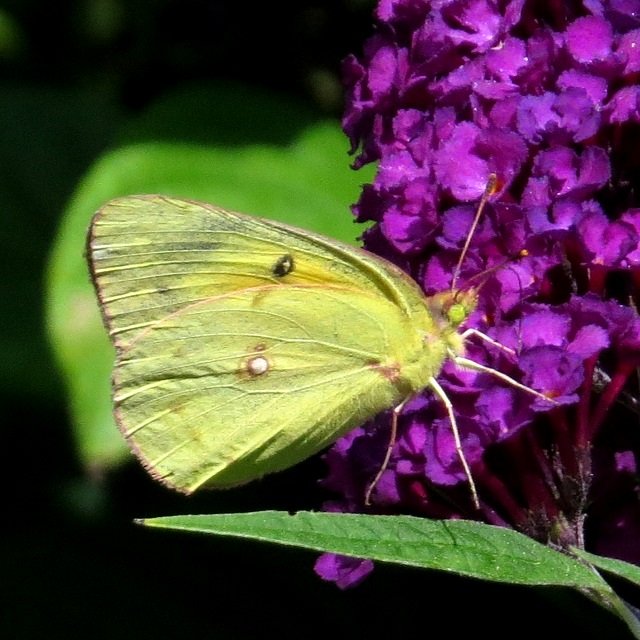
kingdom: Animalia
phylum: Arthropoda
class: Insecta
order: Lepidoptera
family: Pieridae
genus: Colias
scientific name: Colias eurytheme
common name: Orange Sulphur
